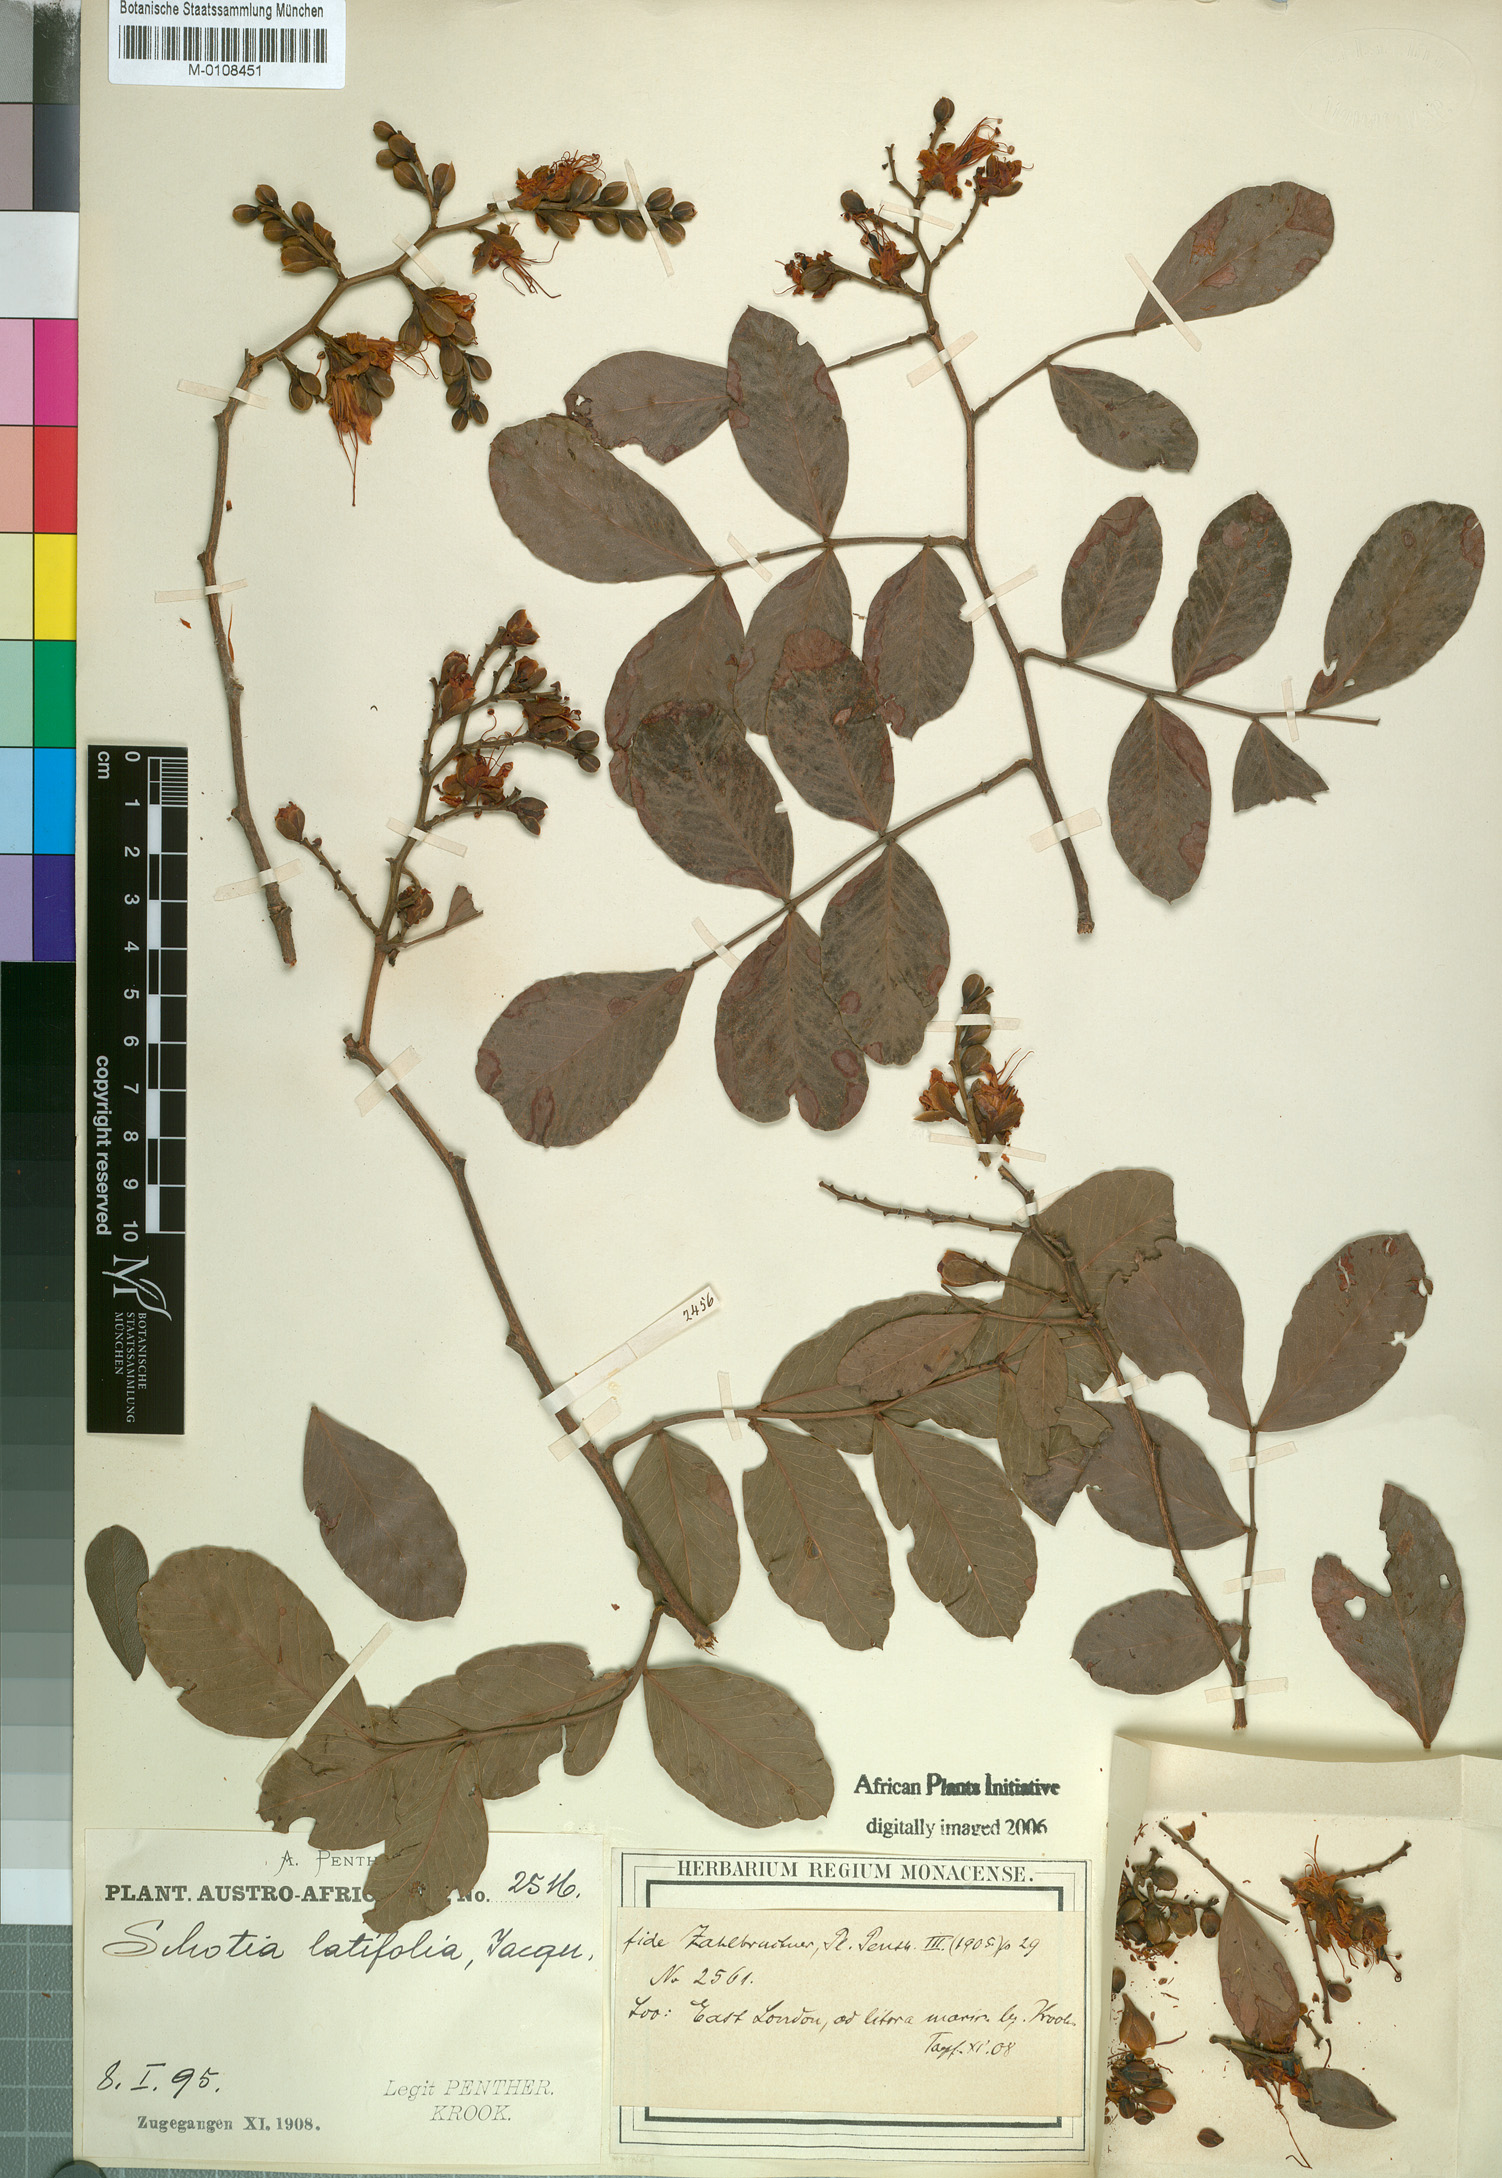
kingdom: Plantae
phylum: Tracheophyta
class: Magnoliopsida
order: Fabales
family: Fabaceae
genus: Schotia
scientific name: Schotia latifolia
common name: Bush boer-bean
